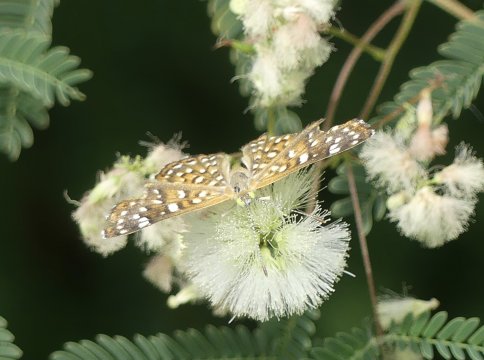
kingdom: Animalia
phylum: Arthropoda
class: Insecta
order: Lepidoptera
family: Riodinidae
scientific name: Riodinidae
